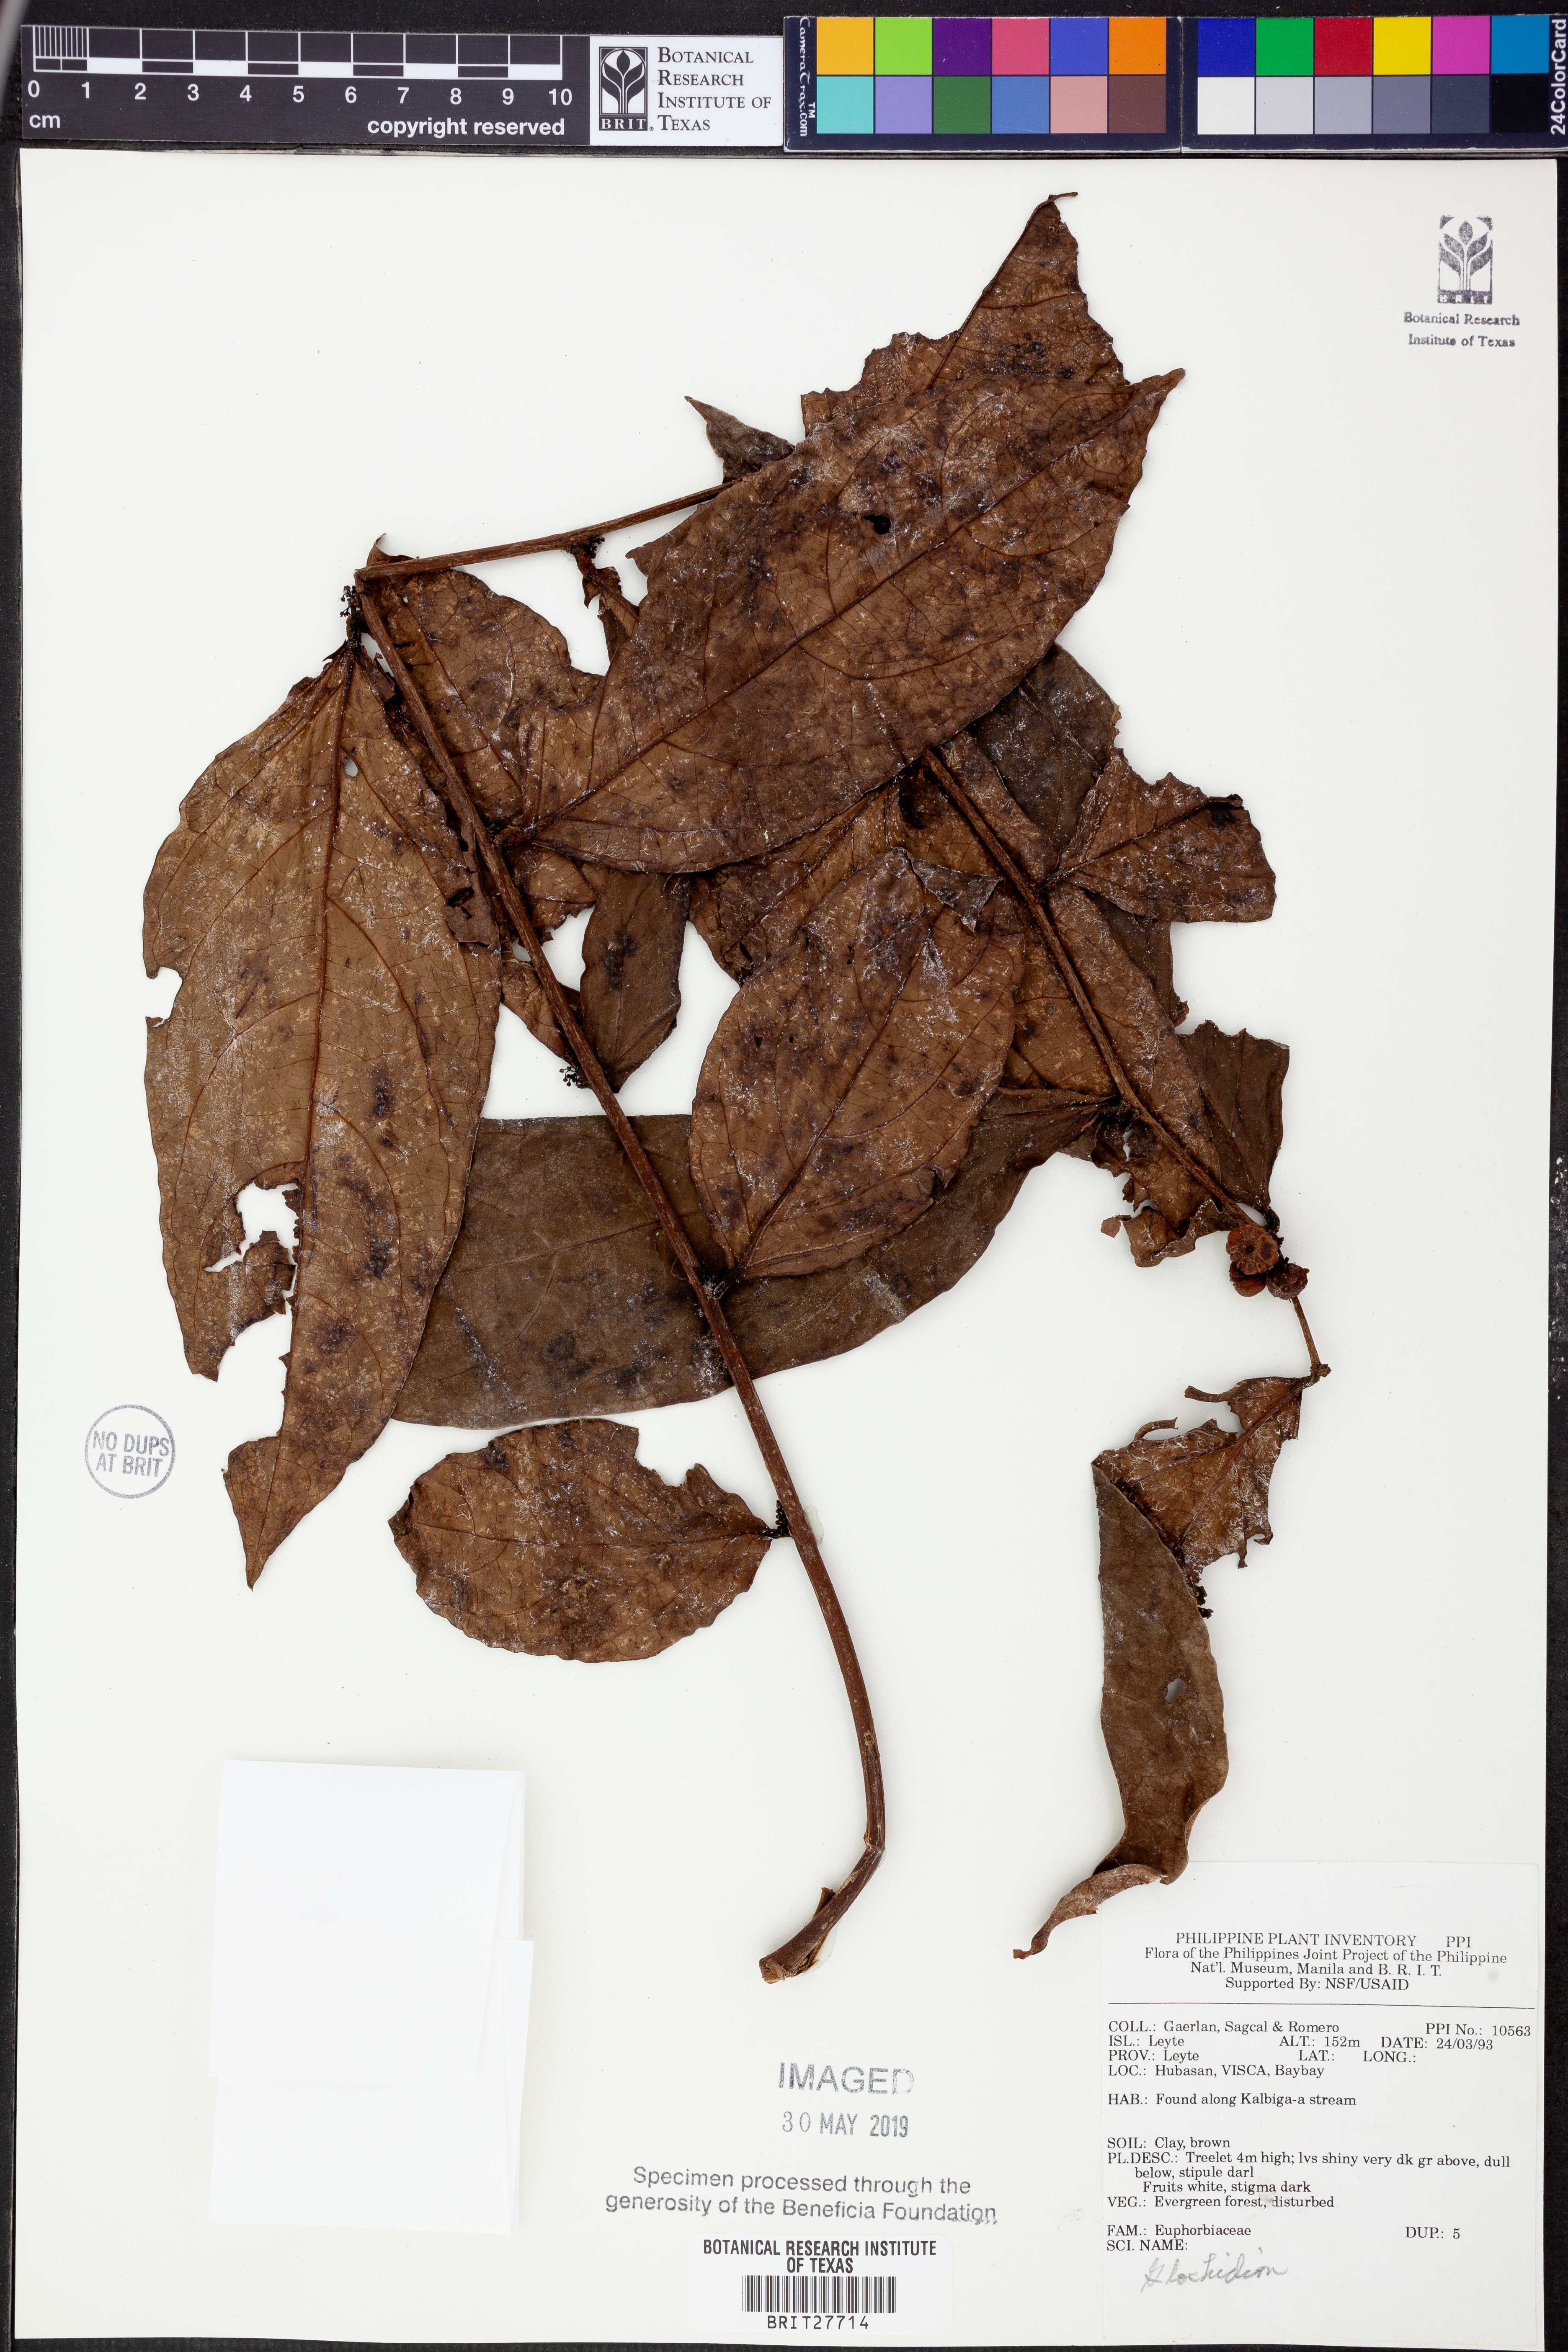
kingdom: Plantae
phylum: Tracheophyta
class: Magnoliopsida
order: Malpighiales
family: Phyllanthaceae
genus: Glochidion
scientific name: Glochidion
